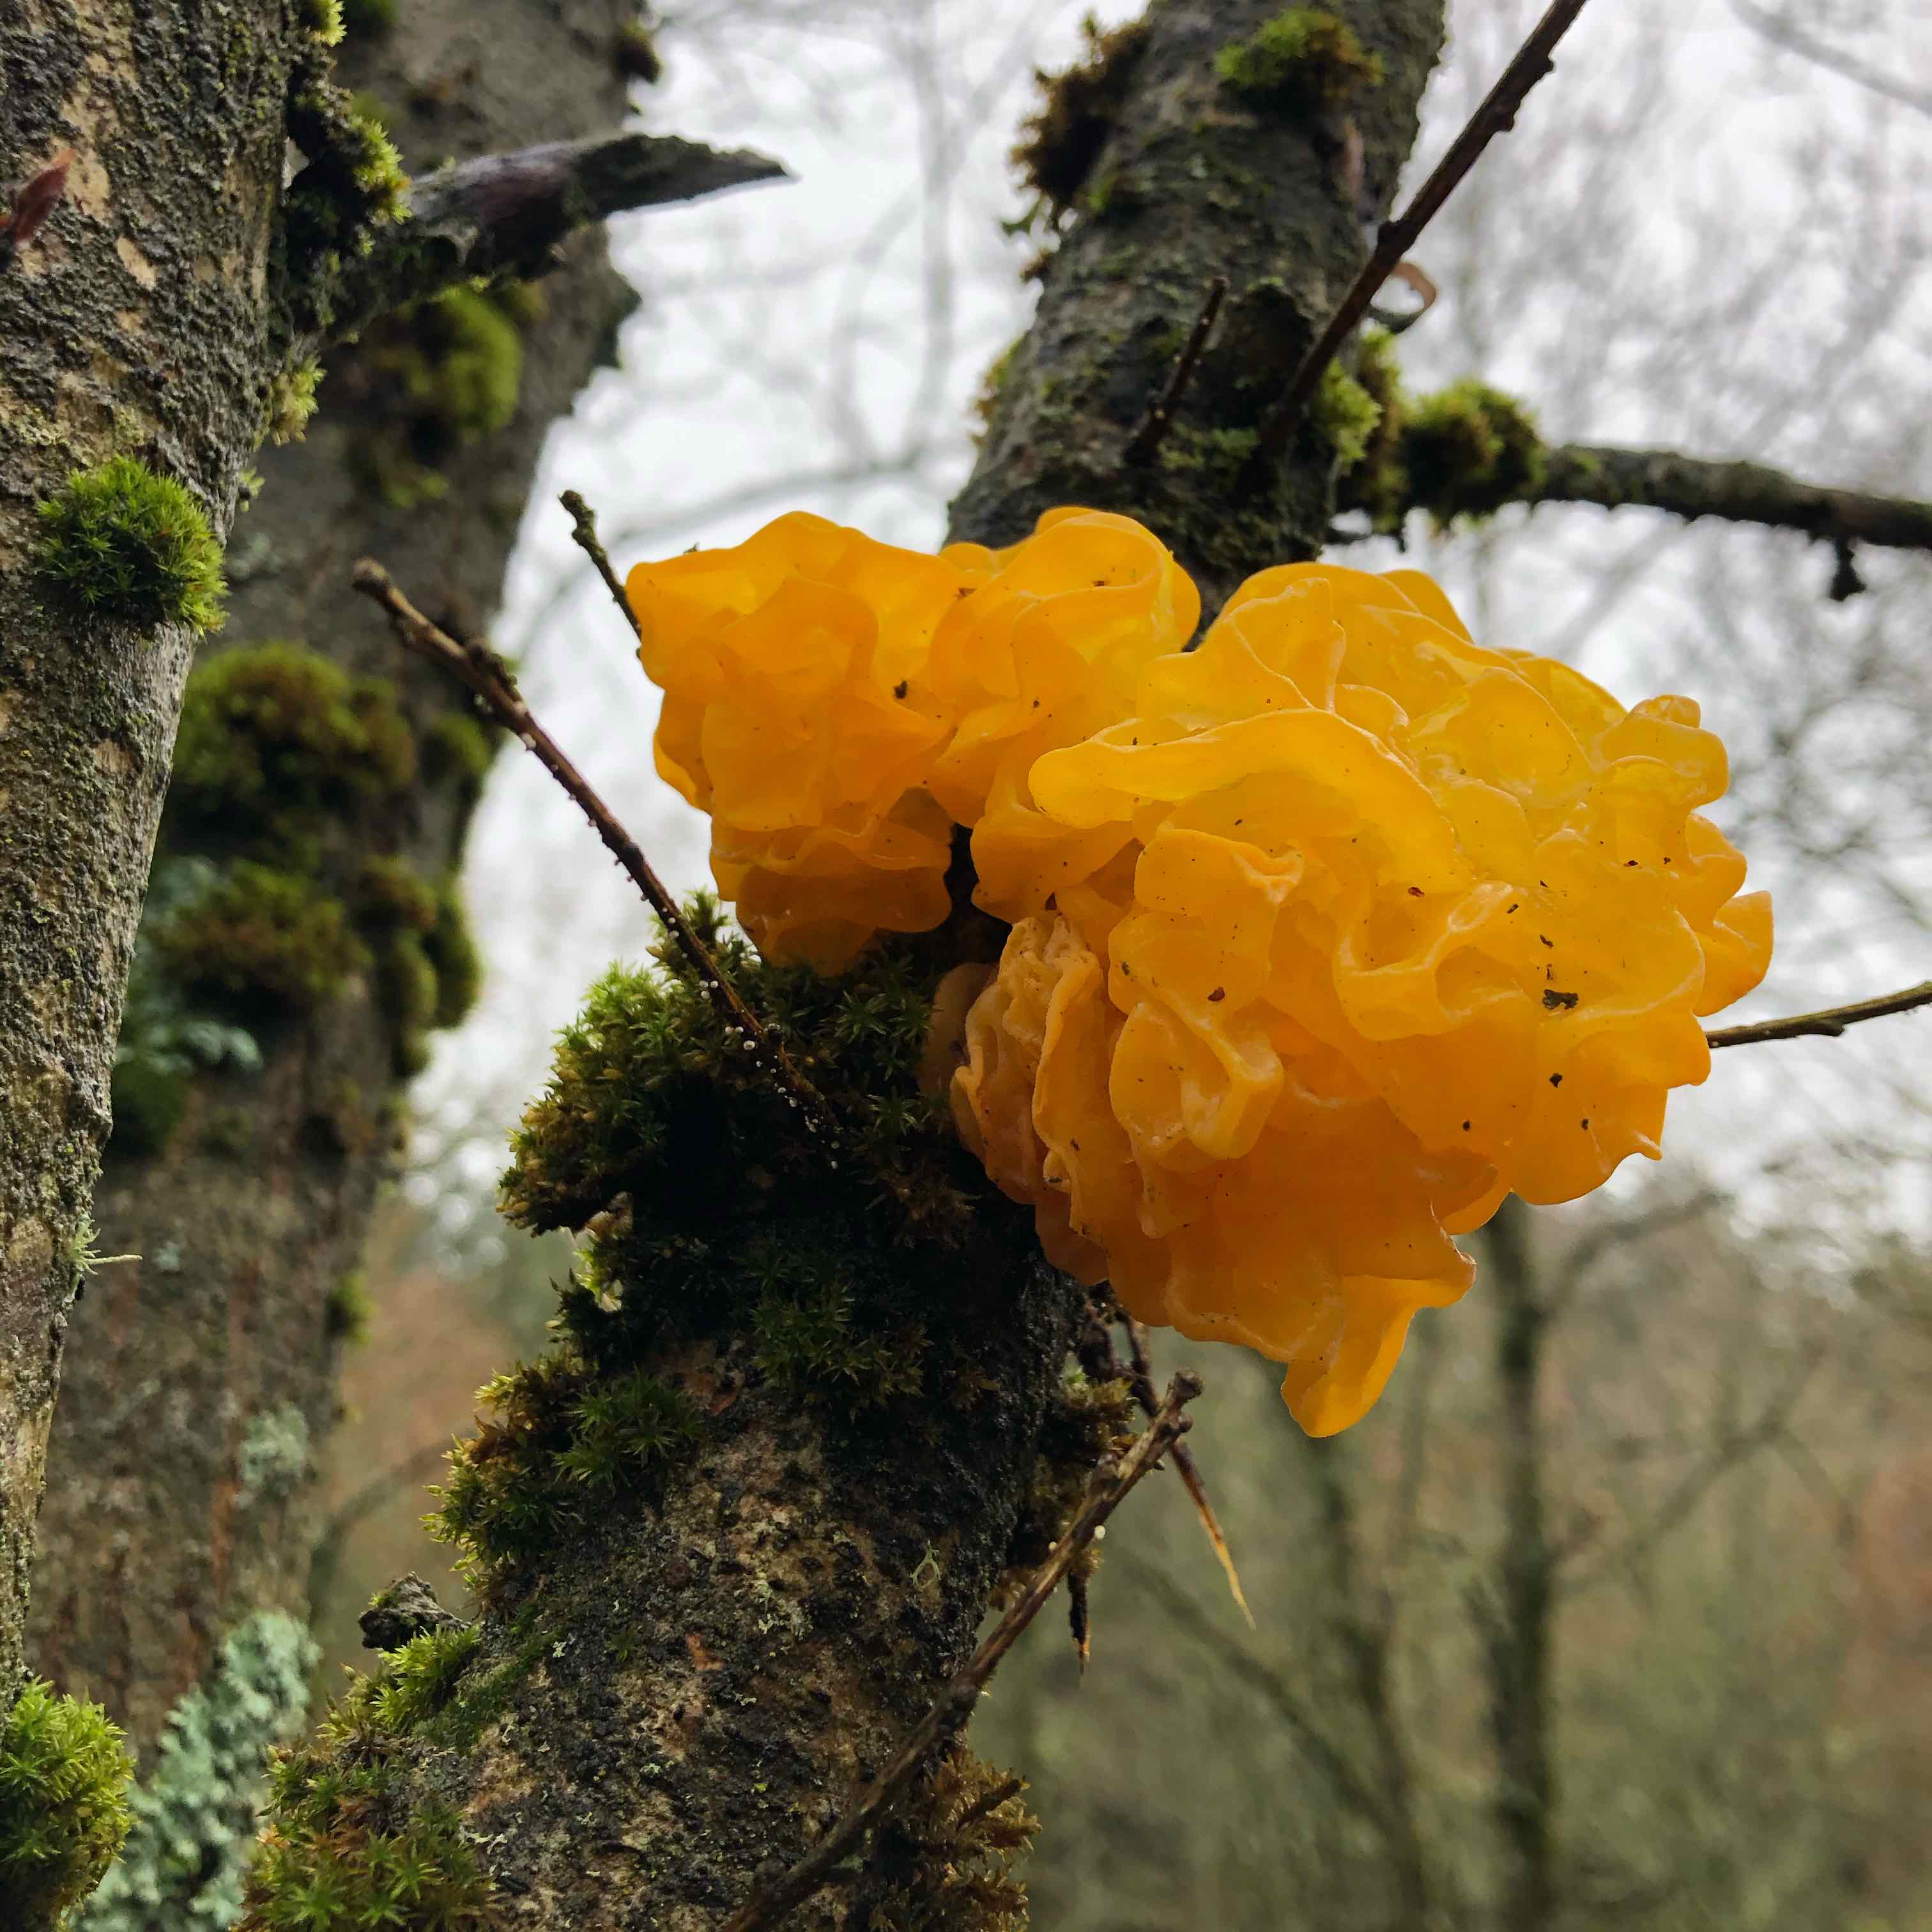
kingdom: Fungi
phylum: Basidiomycota
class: Tremellomycetes
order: Tremellales
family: Tremellaceae
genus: Tremella
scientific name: Tremella mesenterica
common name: gul bævresvamp
